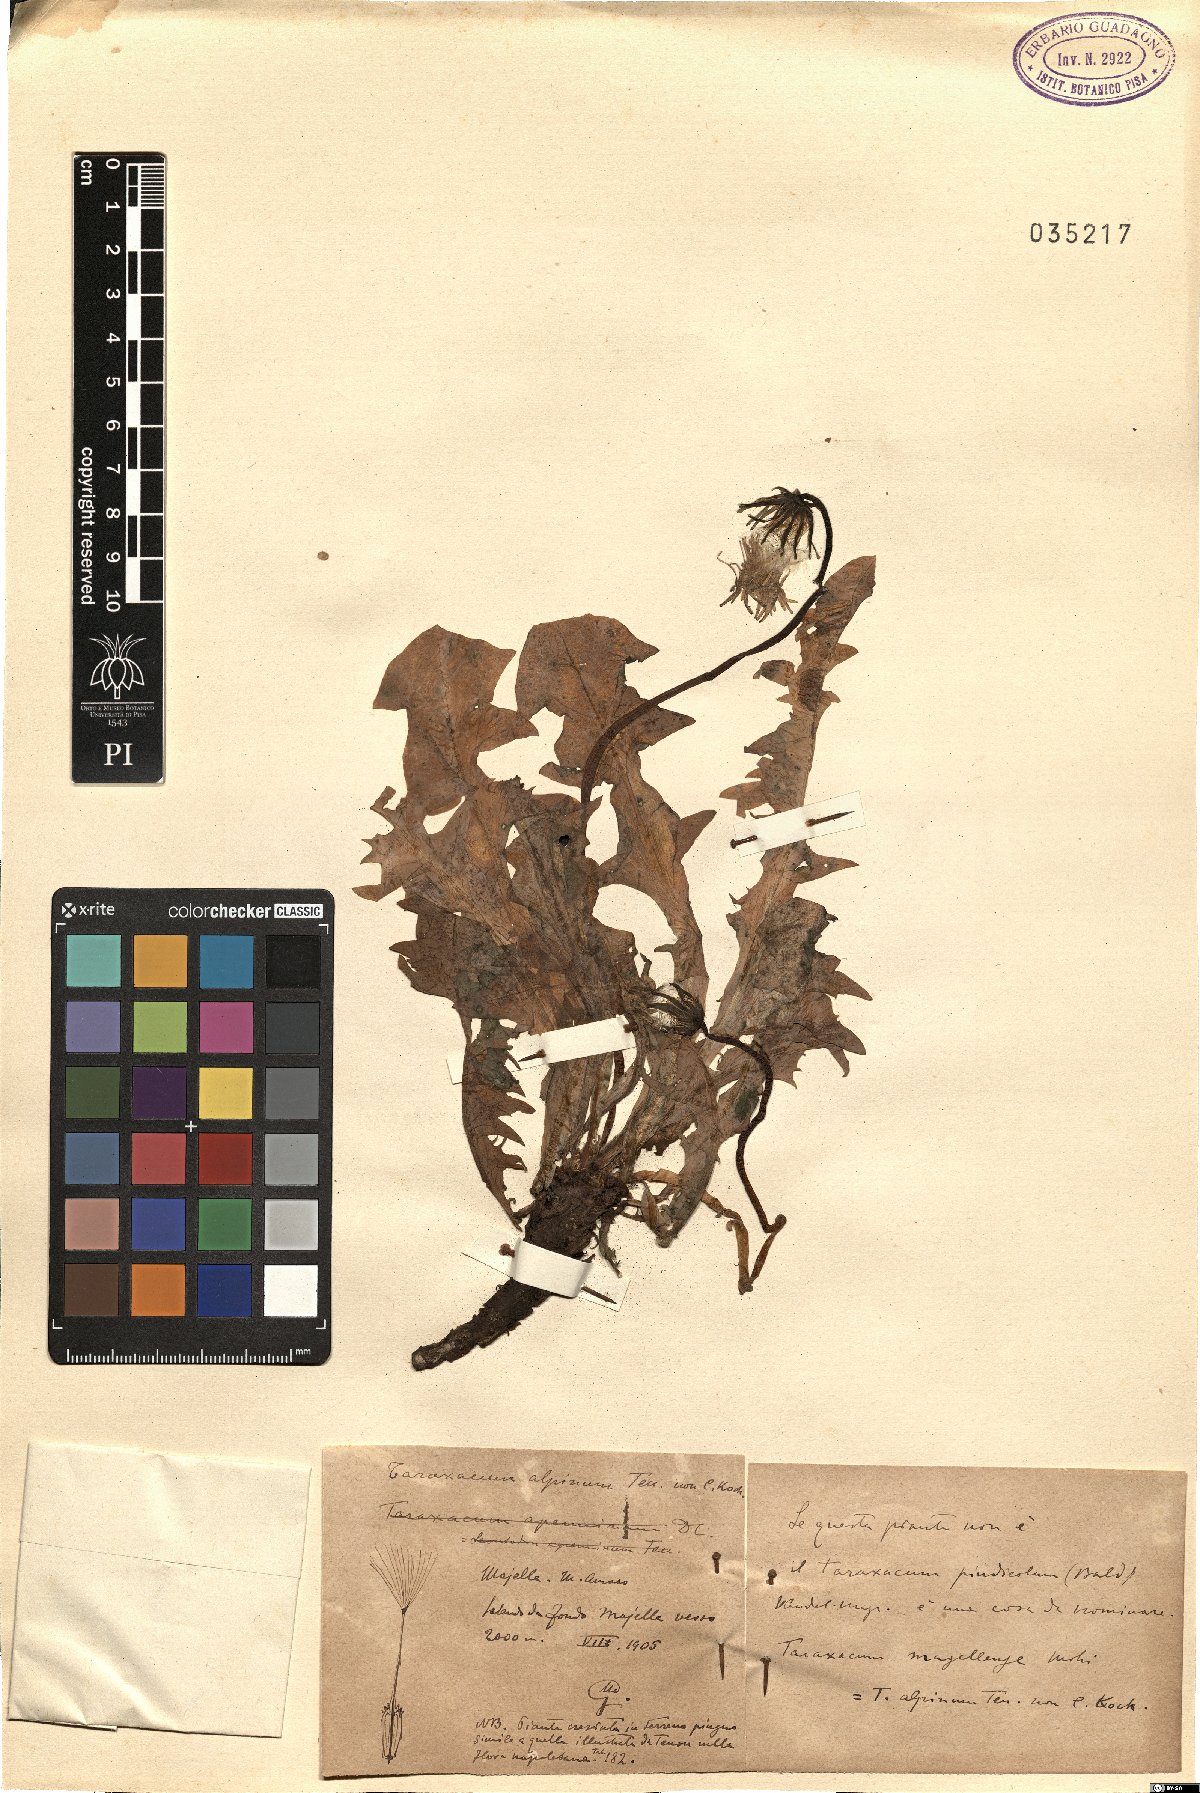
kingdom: Plantae
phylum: Tracheophyta
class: Magnoliopsida
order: Asterales
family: Asteraceae
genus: Taraxacum
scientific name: Taraxacum alpinum
